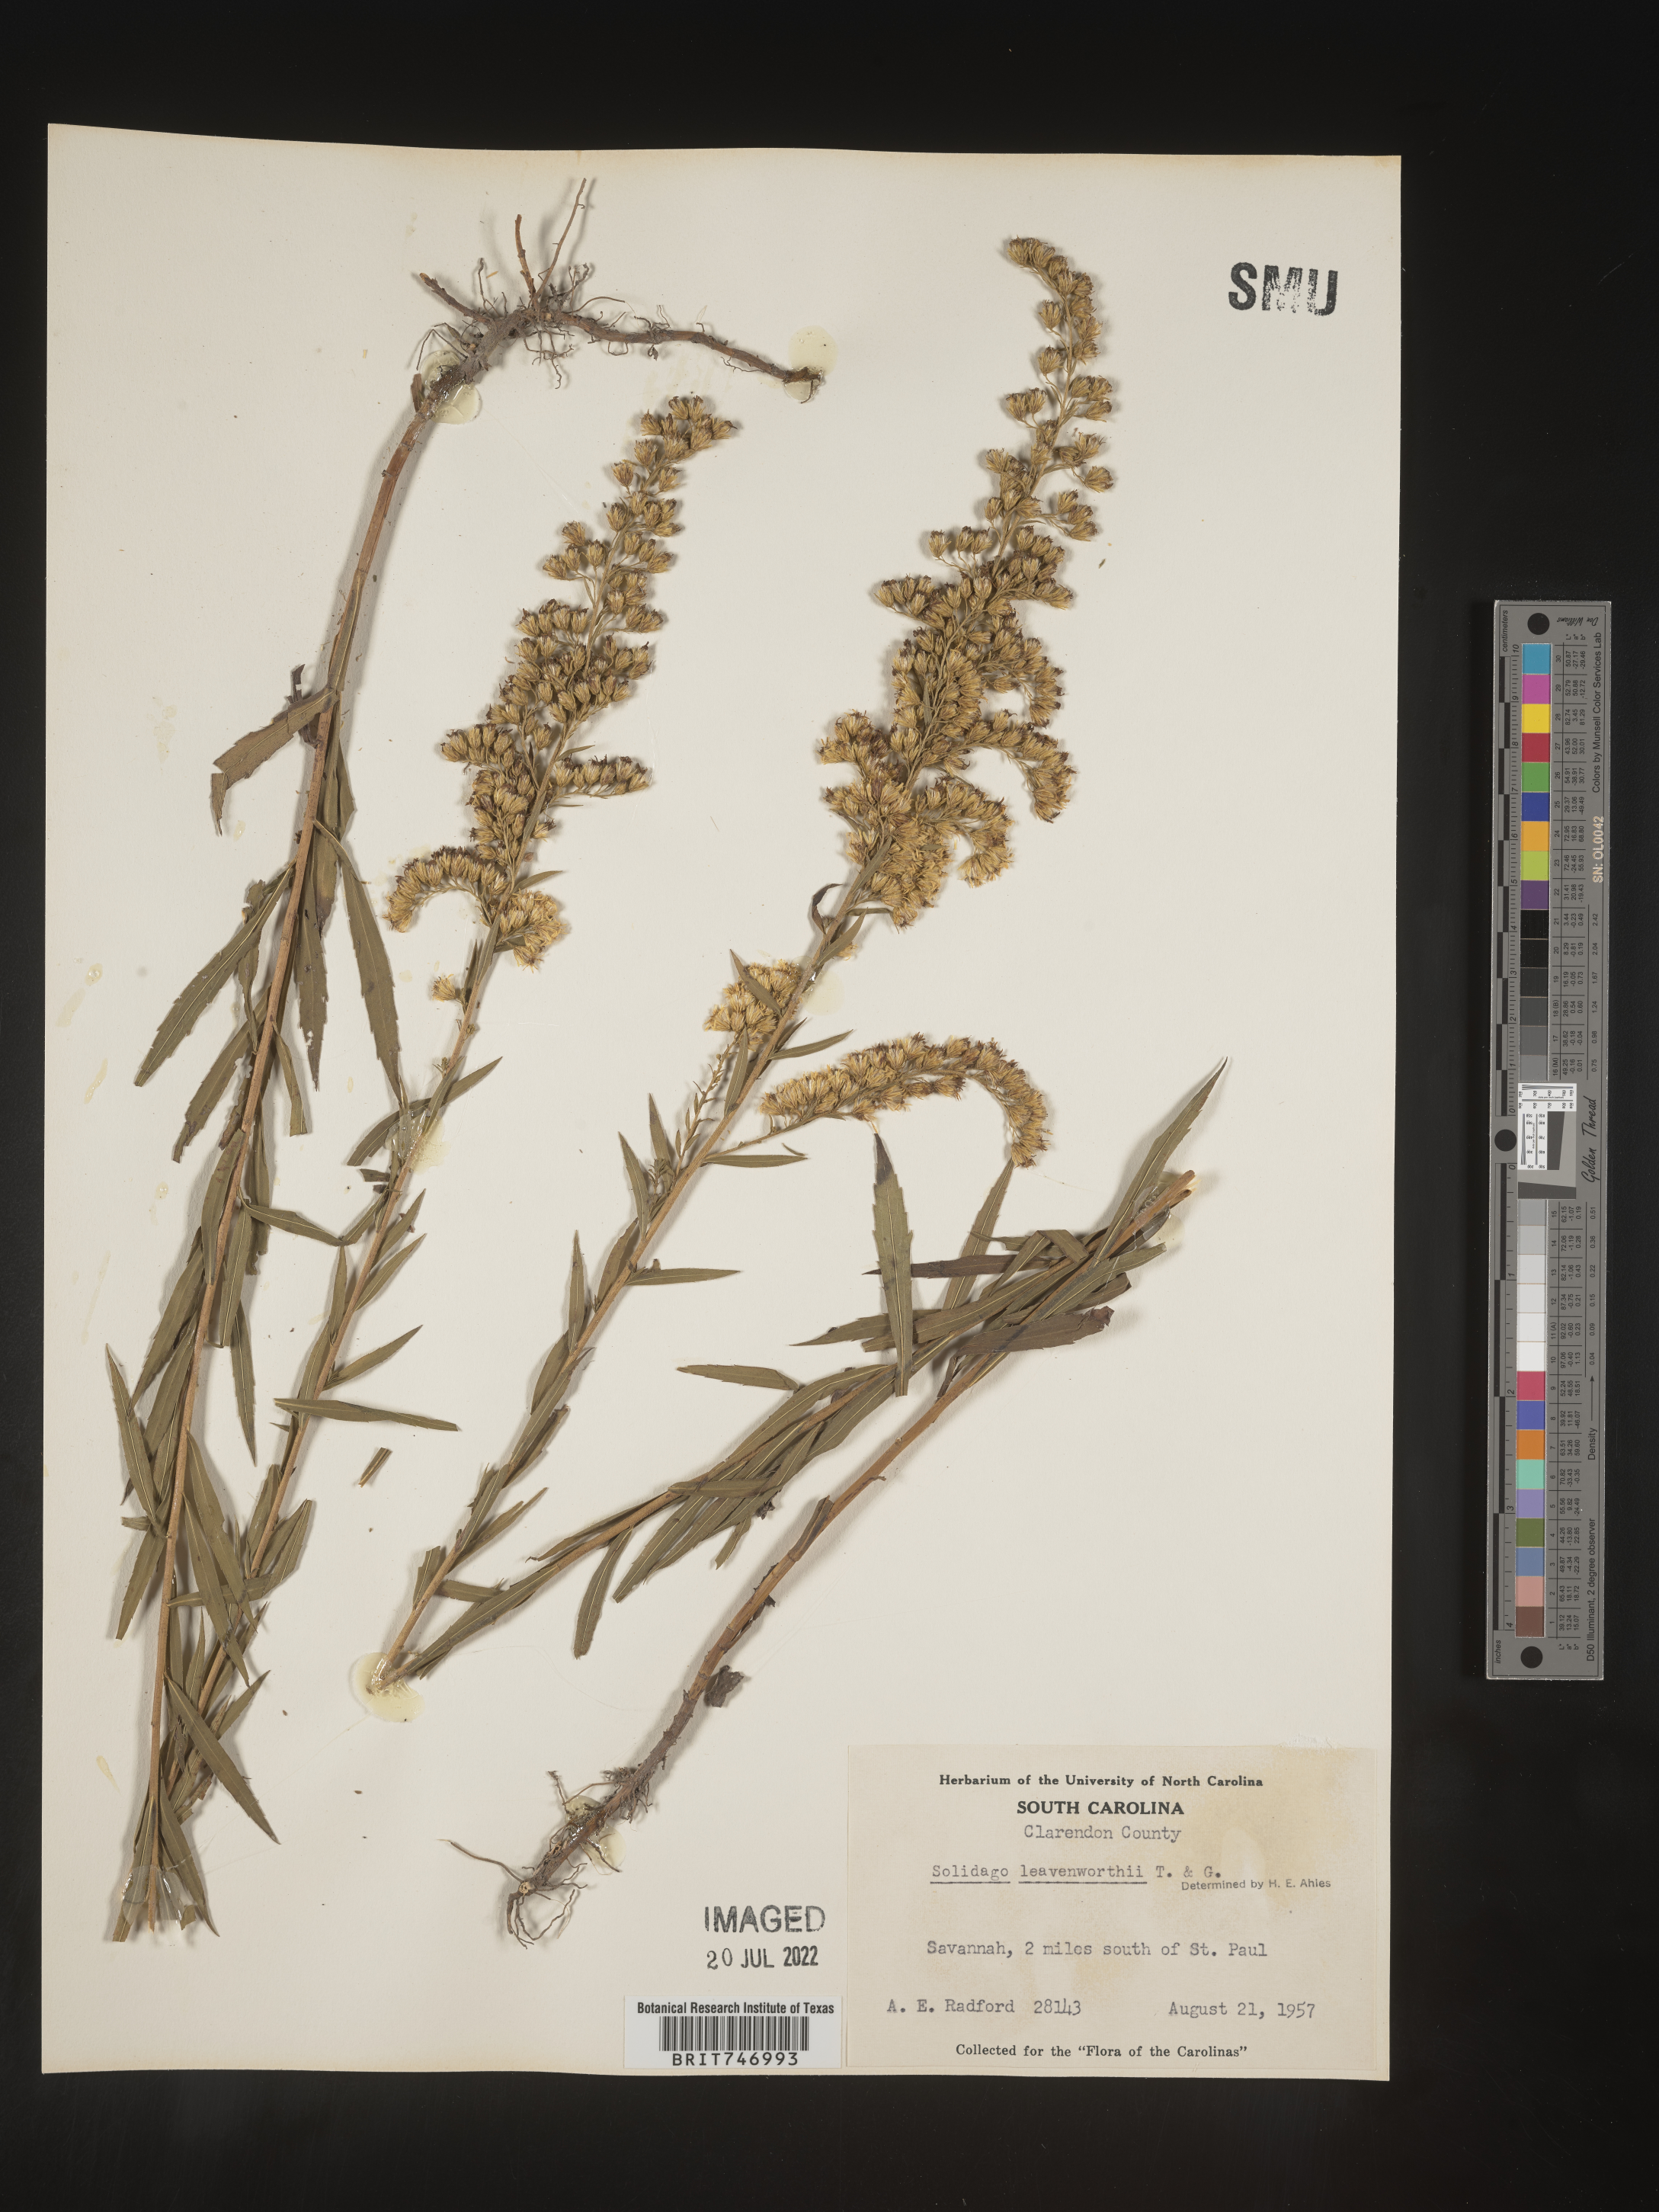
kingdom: Plantae
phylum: Tracheophyta
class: Magnoliopsida
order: Asterales
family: Asteraceae
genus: Solidago
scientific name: Solidago leavenworthii
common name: Leavenworth's goldenrod
